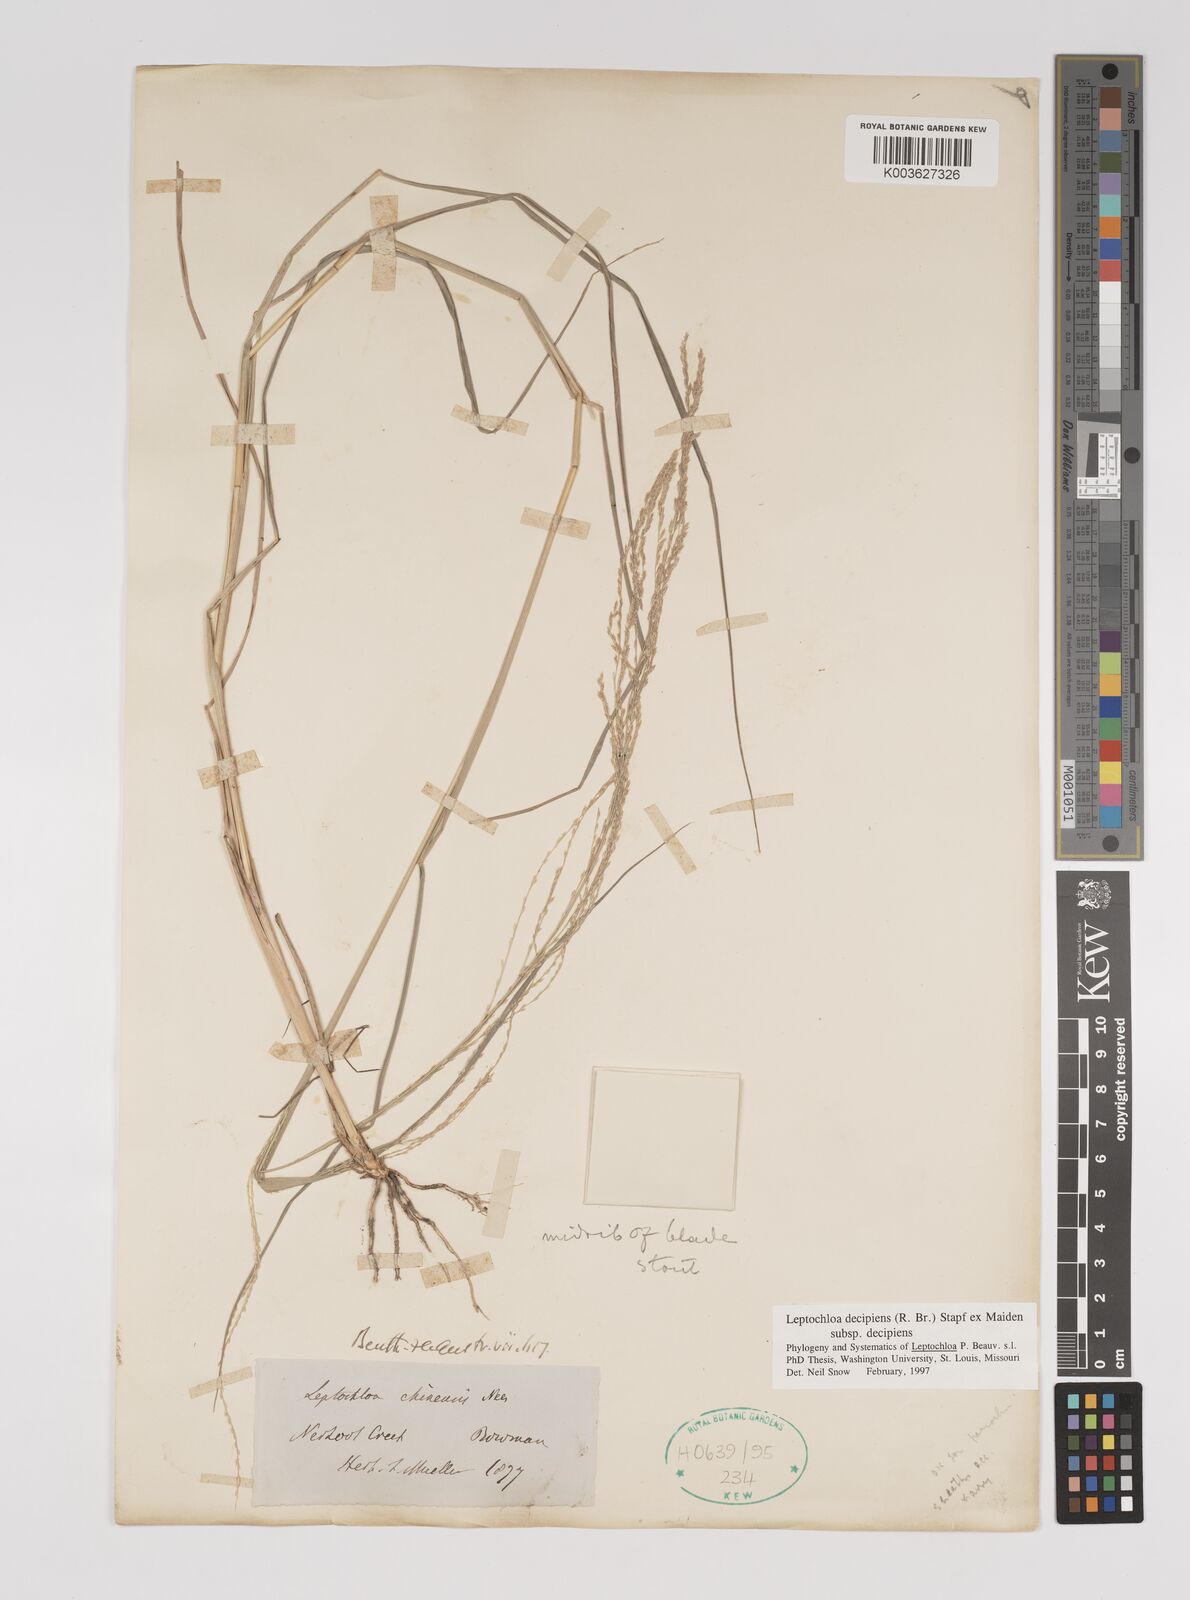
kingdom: Plantae
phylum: Tracheophyta
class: Liliopsida
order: Poales
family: Poaceae
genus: Leptochloa
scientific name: Leptochloa decipiens
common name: Australian sprangletop
